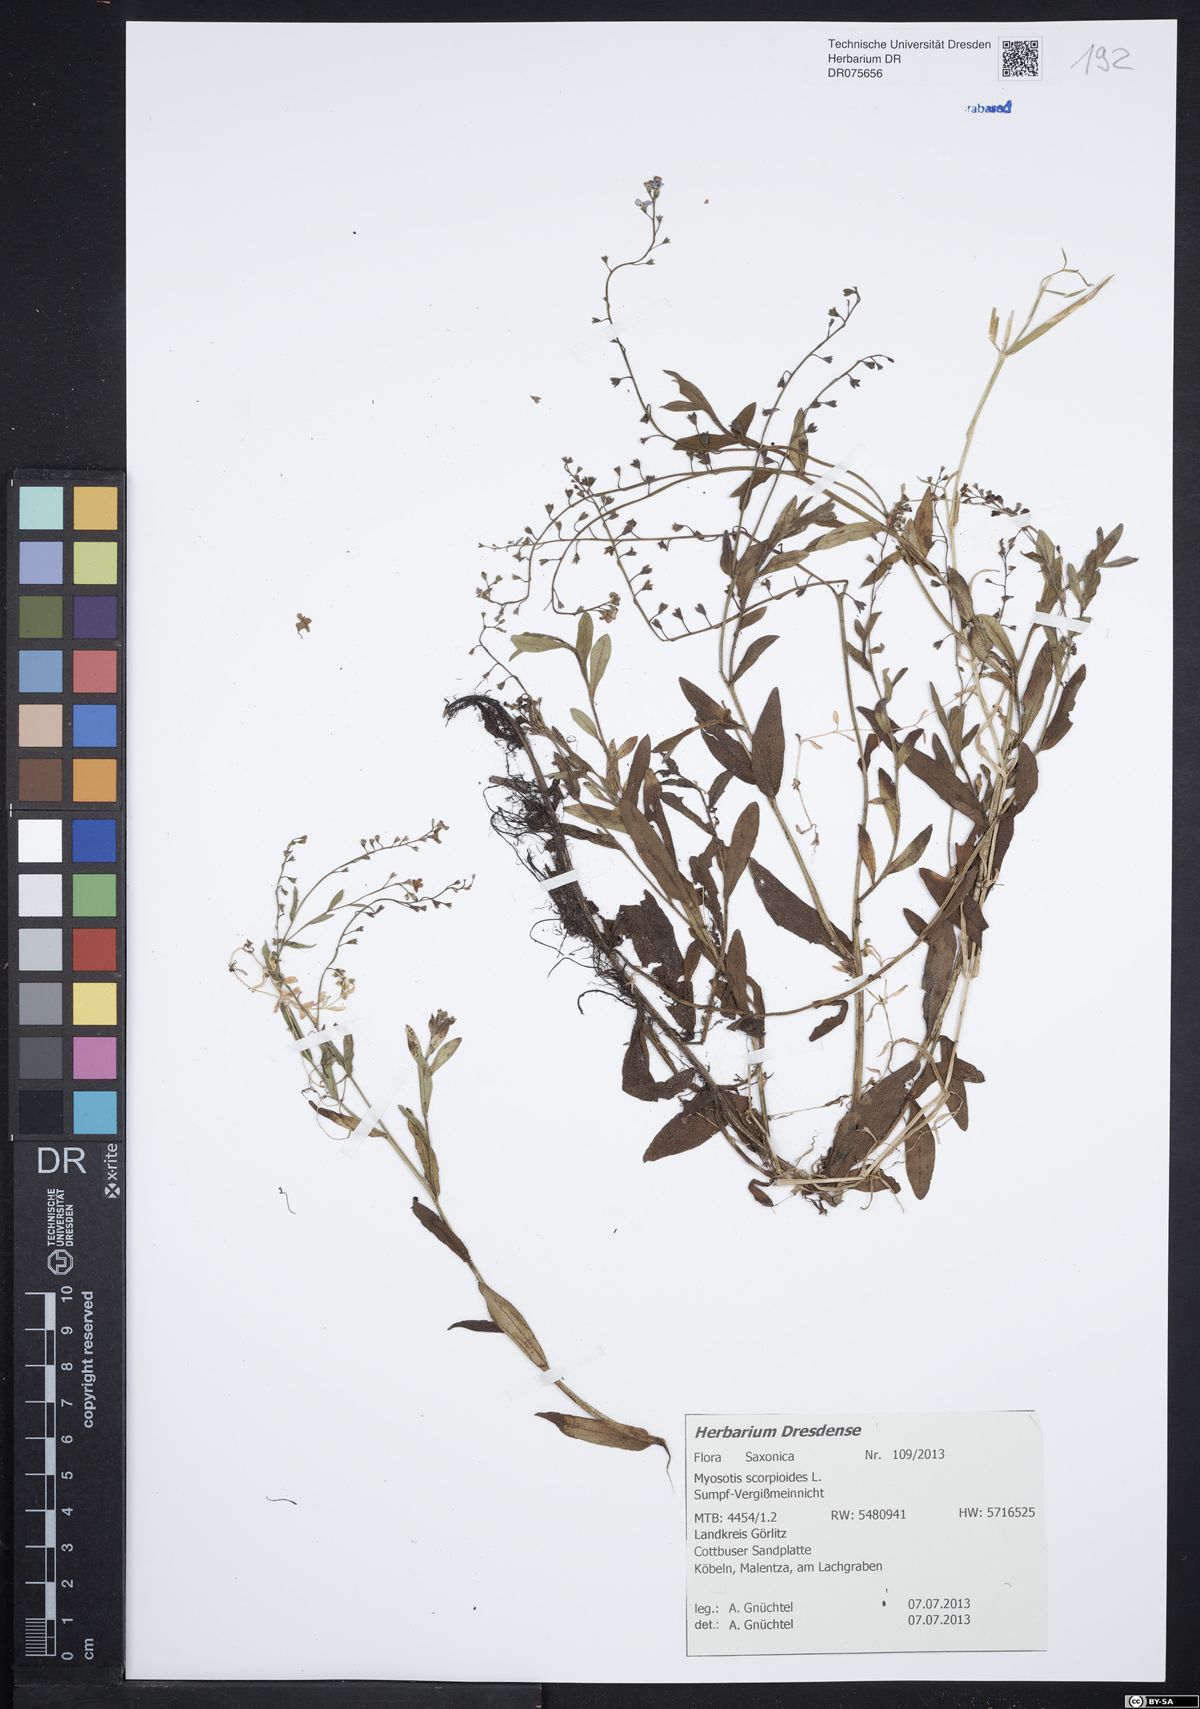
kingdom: Plantae
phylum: Tracheophyta
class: Magnoliopsida
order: Boraginales
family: Boraginaceae
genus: Myosotis
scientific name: Myosotis scorpioides
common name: Water forget-me-not
